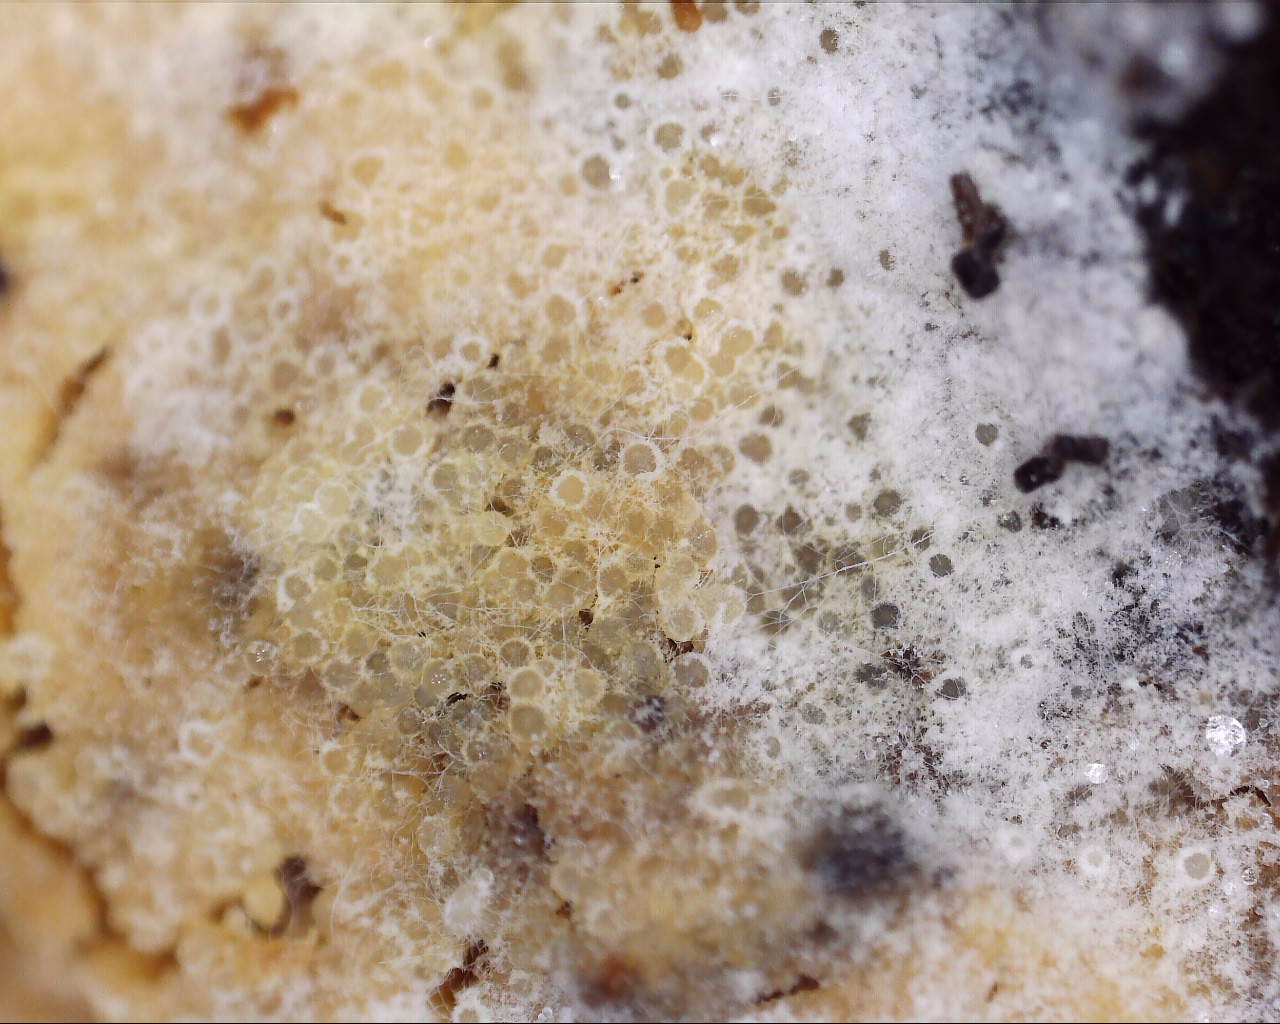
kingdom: Fungi
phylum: Ascomycota
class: Sordariomycetes
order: Hypocreales
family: Hypocreaceae
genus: Protocrea
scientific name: Protocrea farinosa
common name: krystalpore-kødkerne
